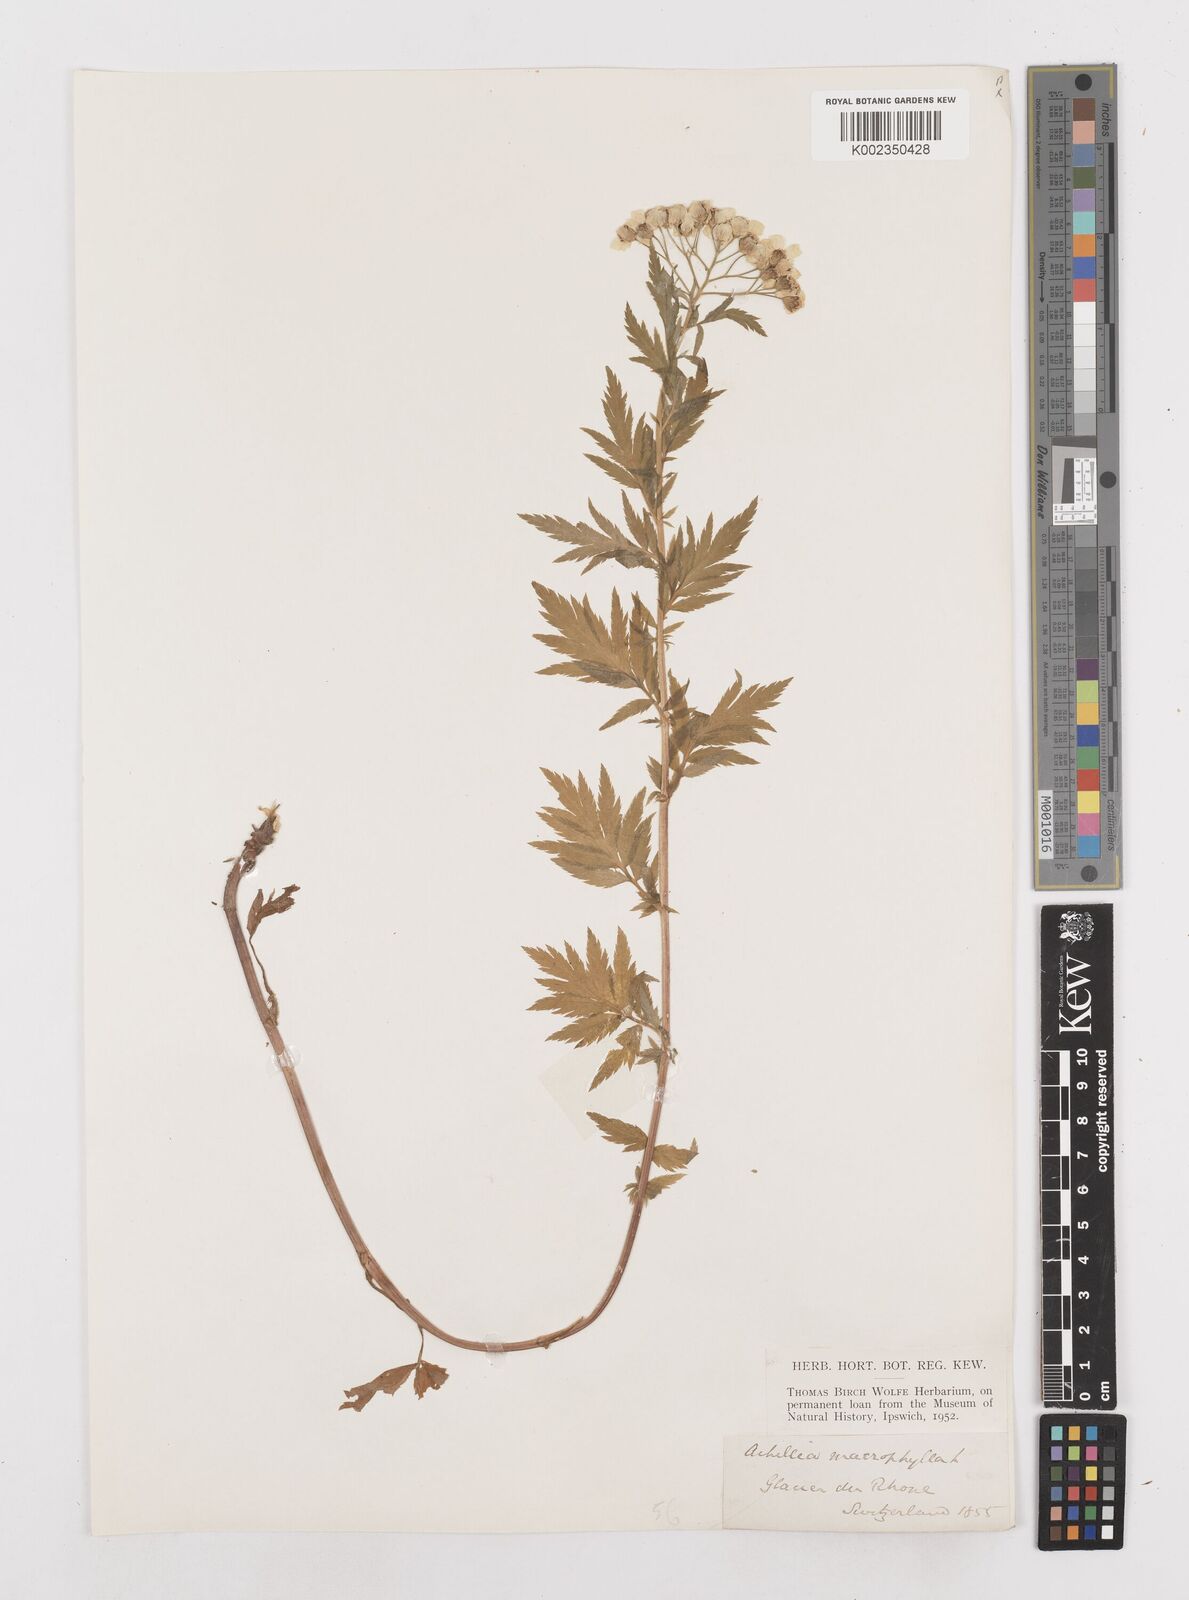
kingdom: Plantae
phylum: Tracheophyta
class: Magnoliopsida
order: Asterales
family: Asteraceae
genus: Achillea
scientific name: Achillea macrophylla
